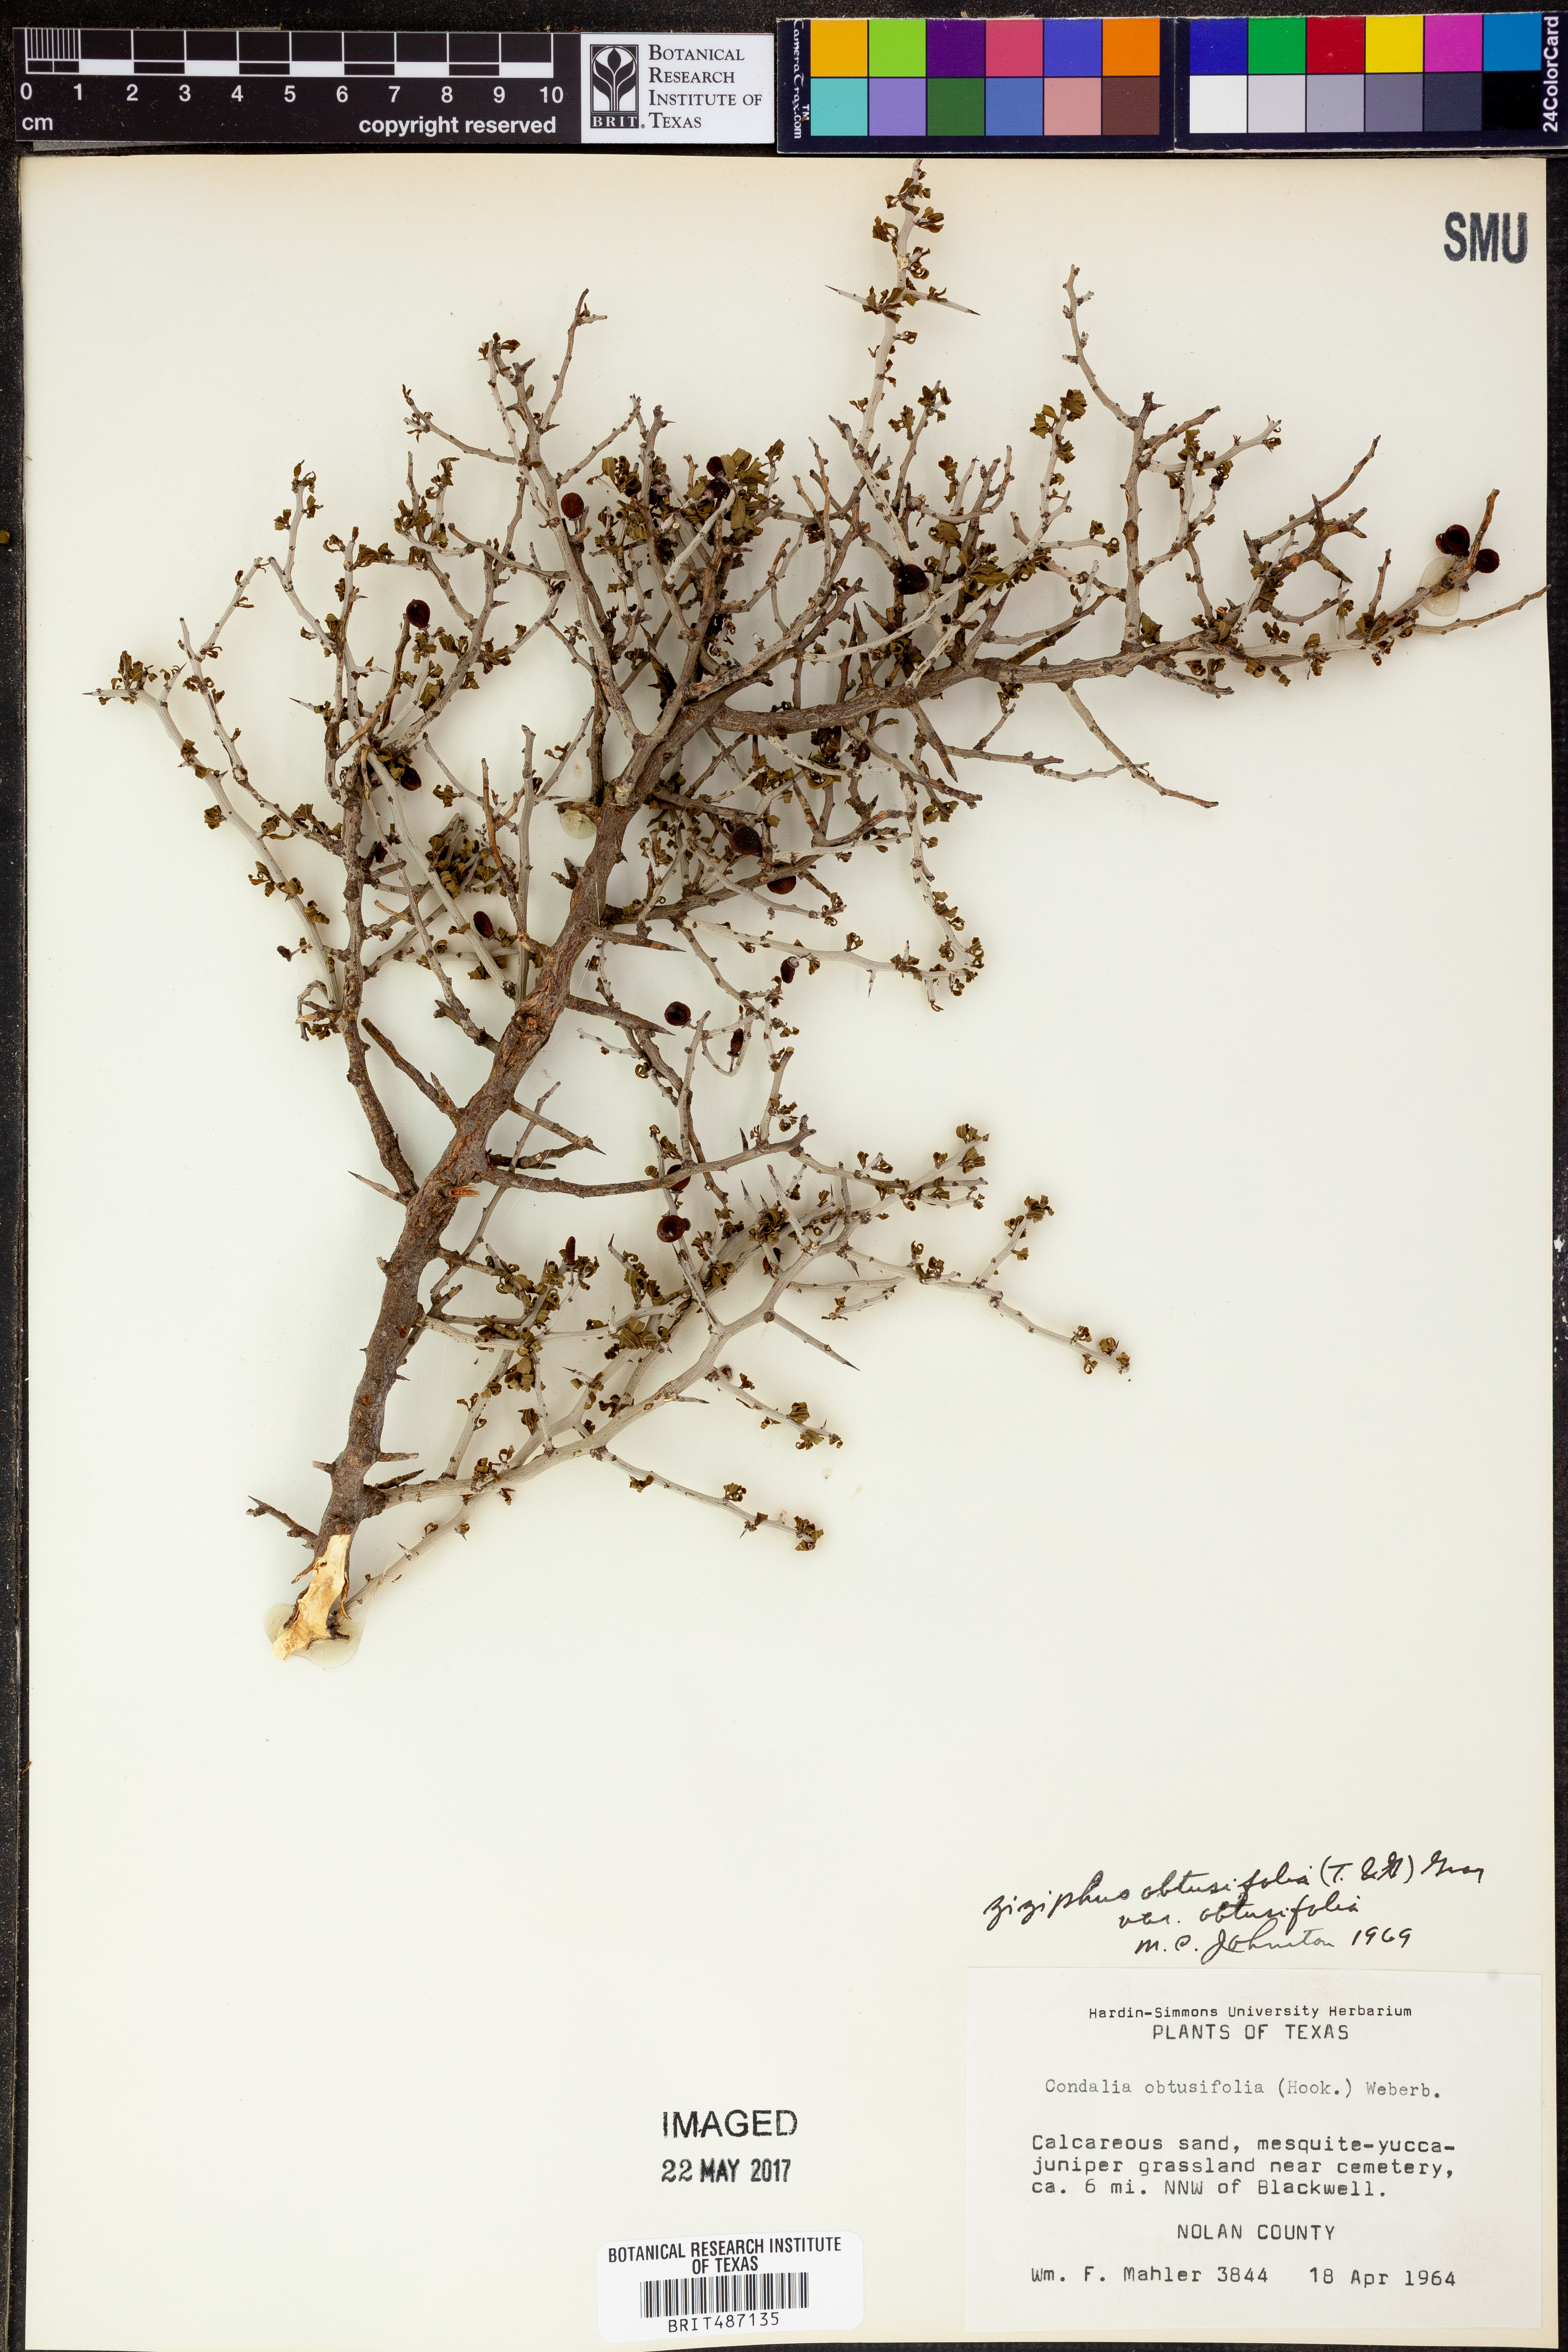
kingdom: Plantae
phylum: Tracheophyta
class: Magnoliopsida
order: Rosales
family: Rhamnaceae
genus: Sarcomphalus
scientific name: Sarcomphalus obtusifolius
